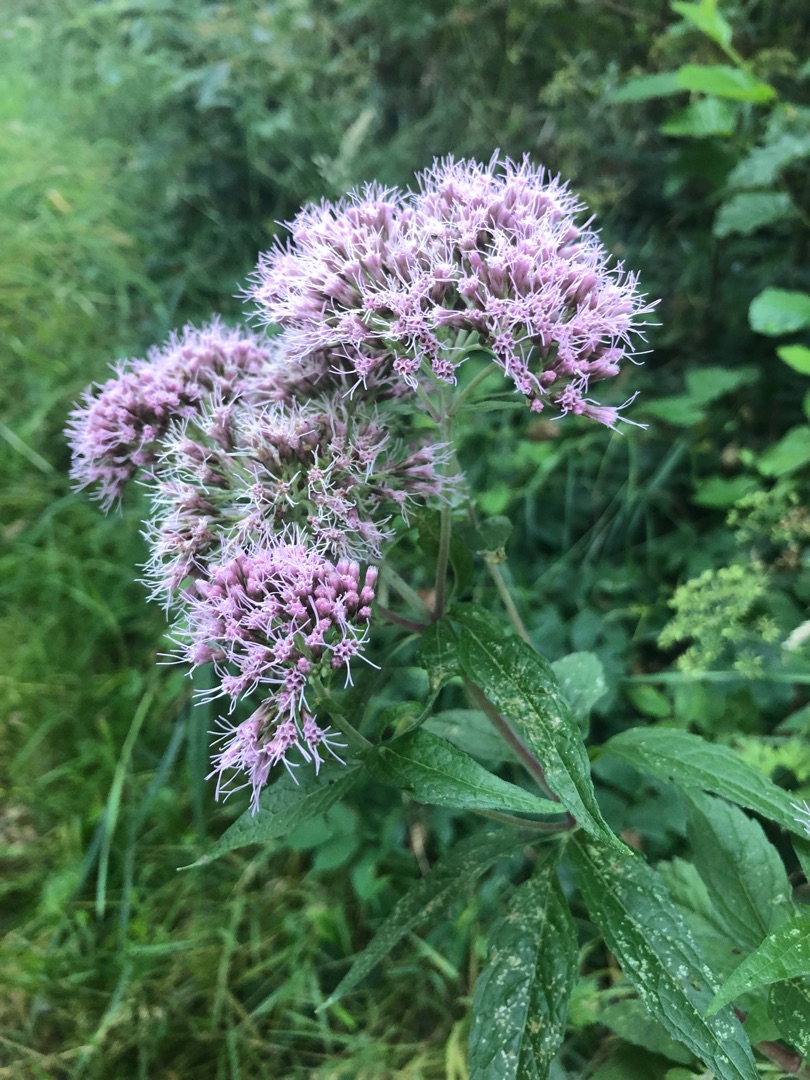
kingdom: Plantae
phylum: Tracheophyta
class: Magnoliopsida
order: Asterales
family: Asteraceae
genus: Eupatorium
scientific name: Eupatorium cannabinum
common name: Hjortetrøst
